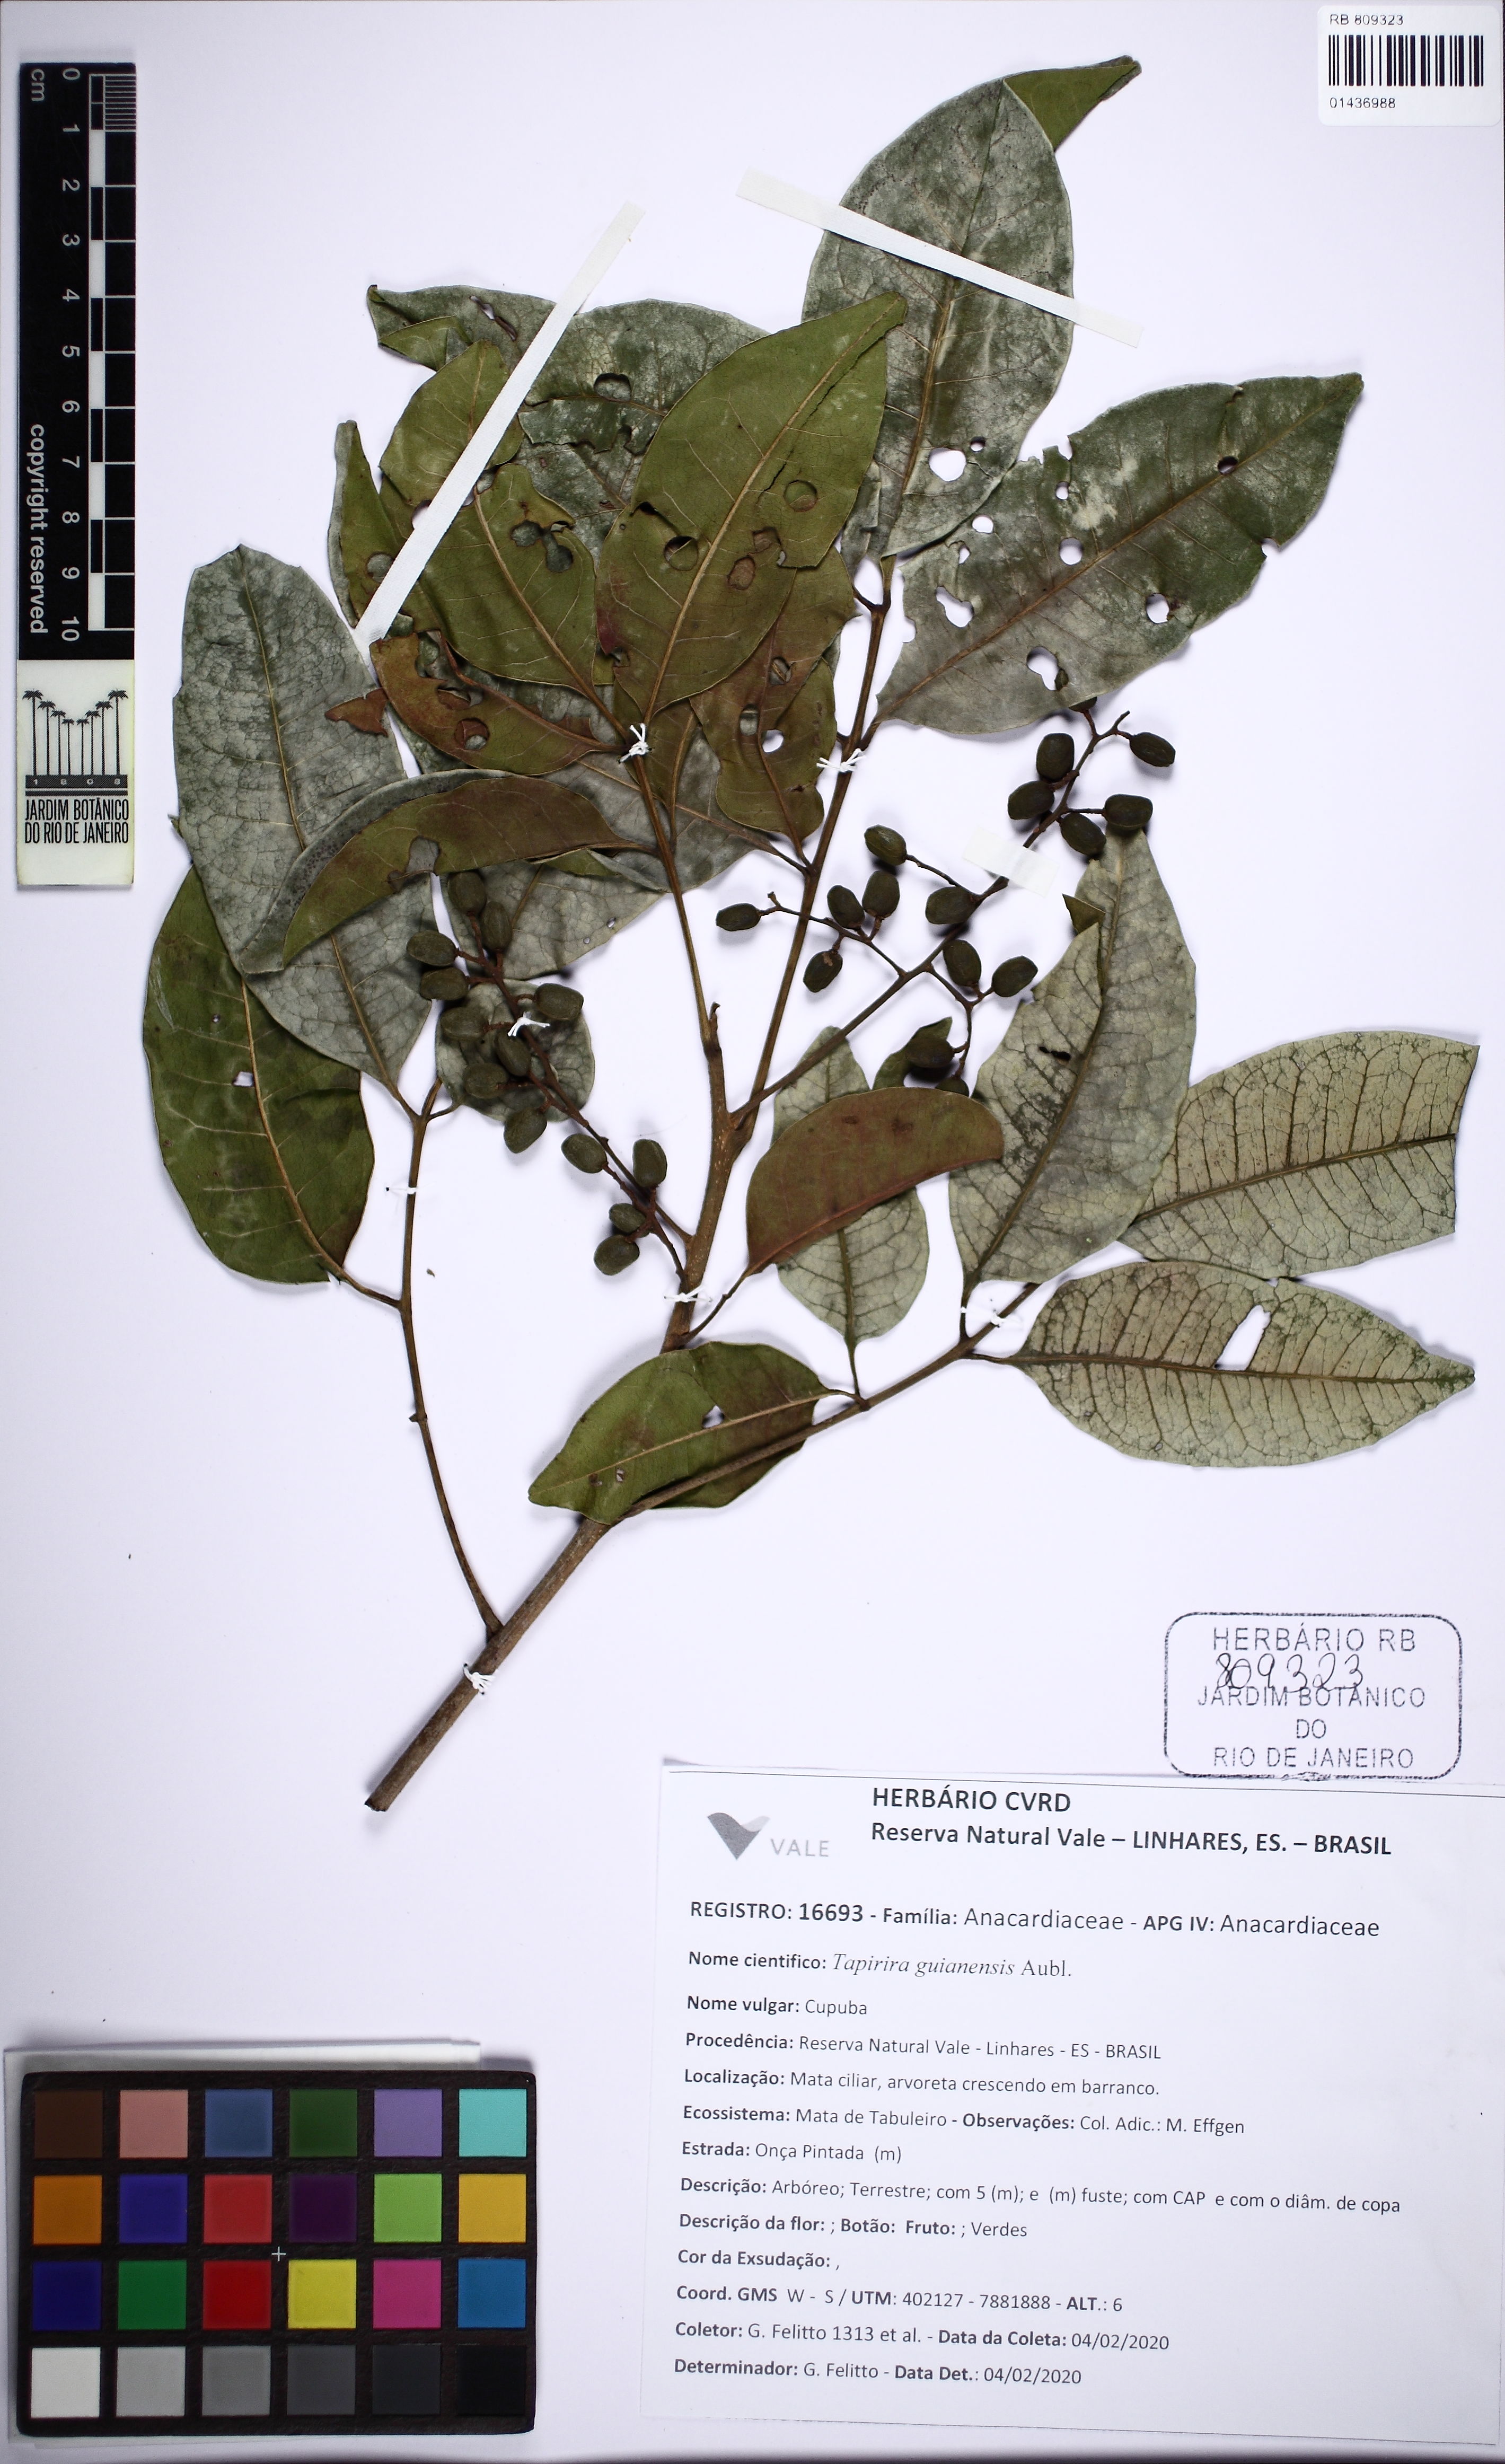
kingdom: Plantae
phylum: Tracheophyta
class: Magnoliopsida
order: Sapindales
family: Anacardiaceae
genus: Tapirira
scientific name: Tapirira guianensis
